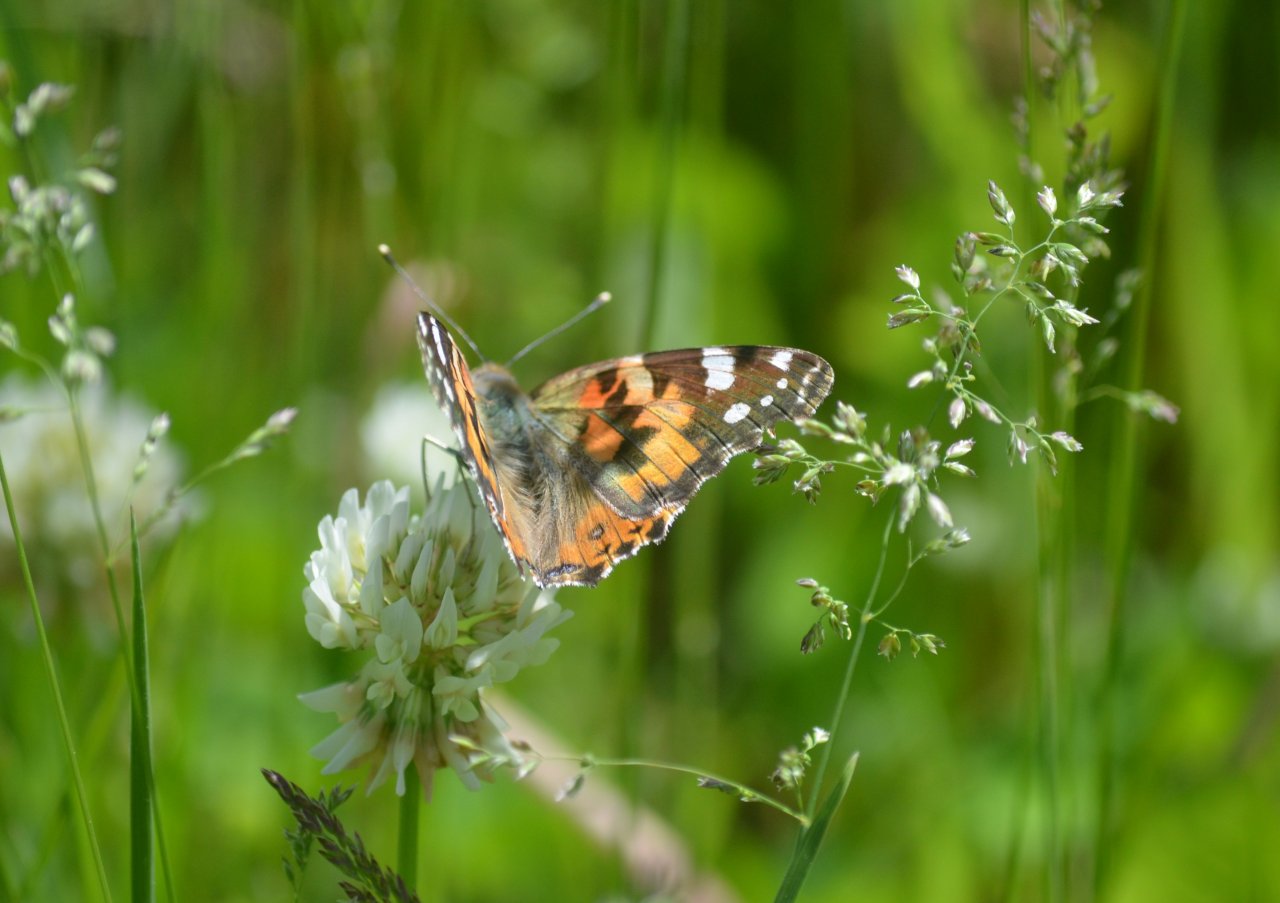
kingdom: Animalia
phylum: Arthropoda
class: Insecta
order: Lepidoptera
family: Nymphalidae
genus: Vanessa
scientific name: Vanessa cardui
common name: Painted Lady
